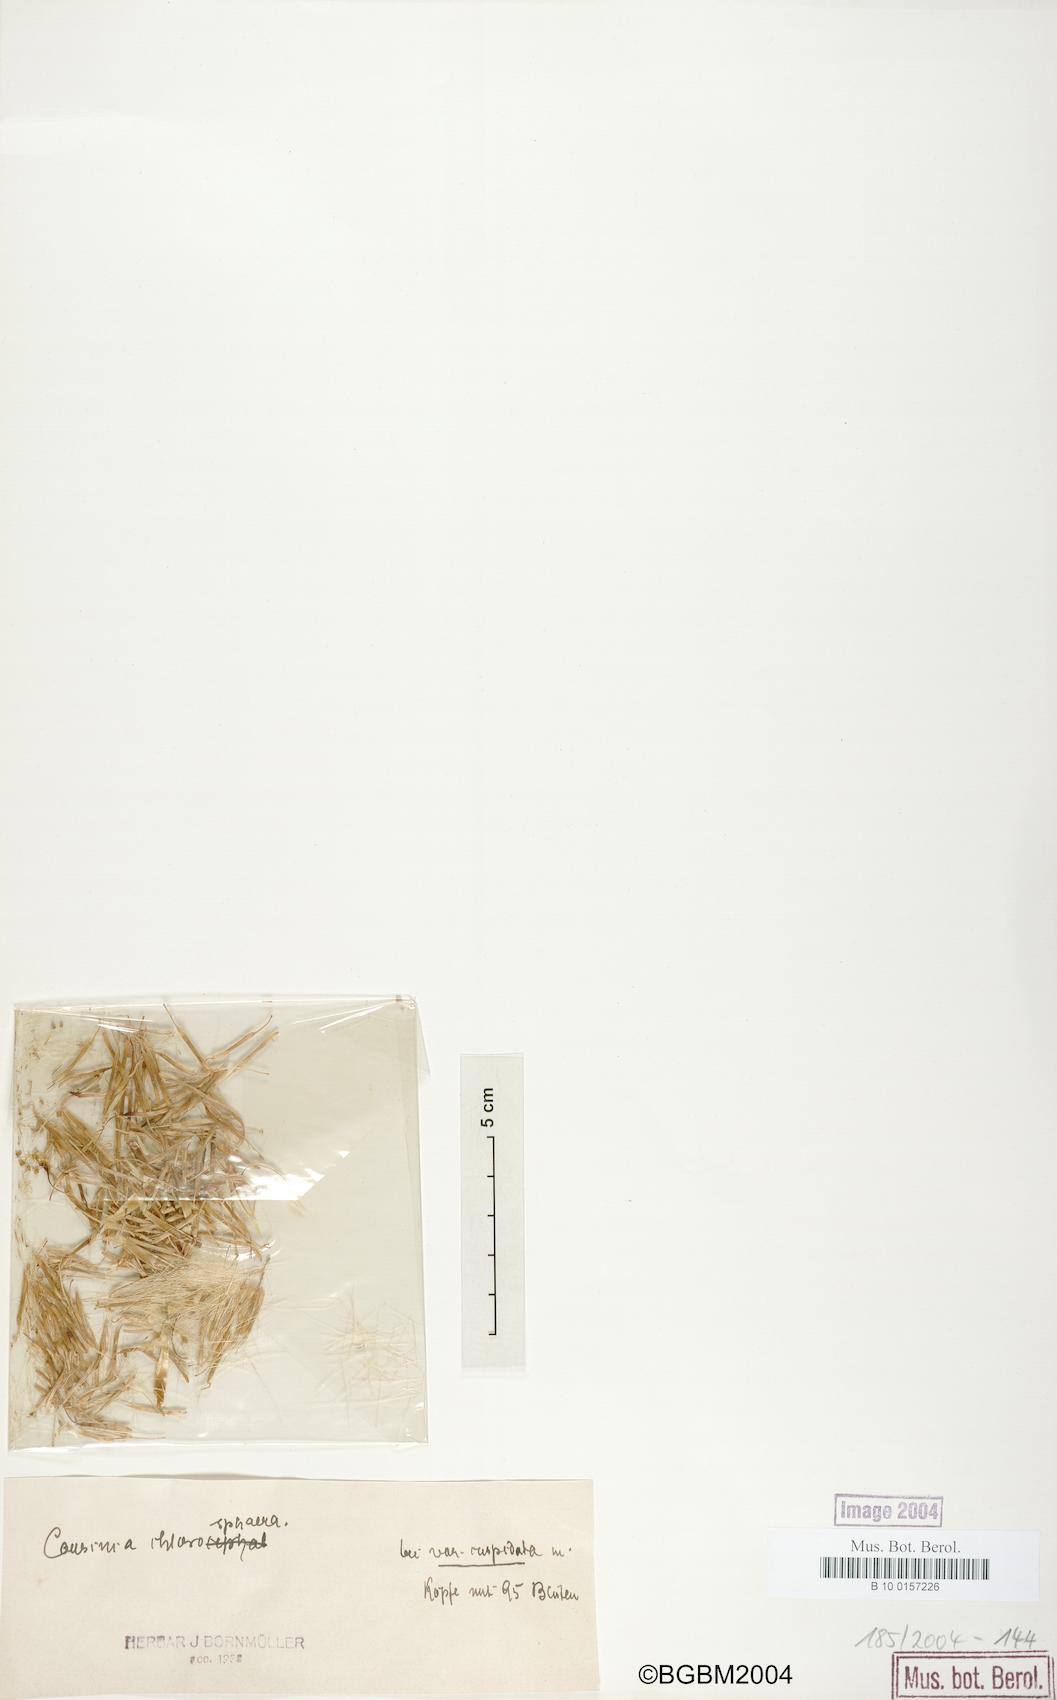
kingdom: Plantae
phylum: Tracheophyta
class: Magnoliopsida
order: Asterales
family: Asteraceae
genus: Cousinia
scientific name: Cousinia chlorosphaera
